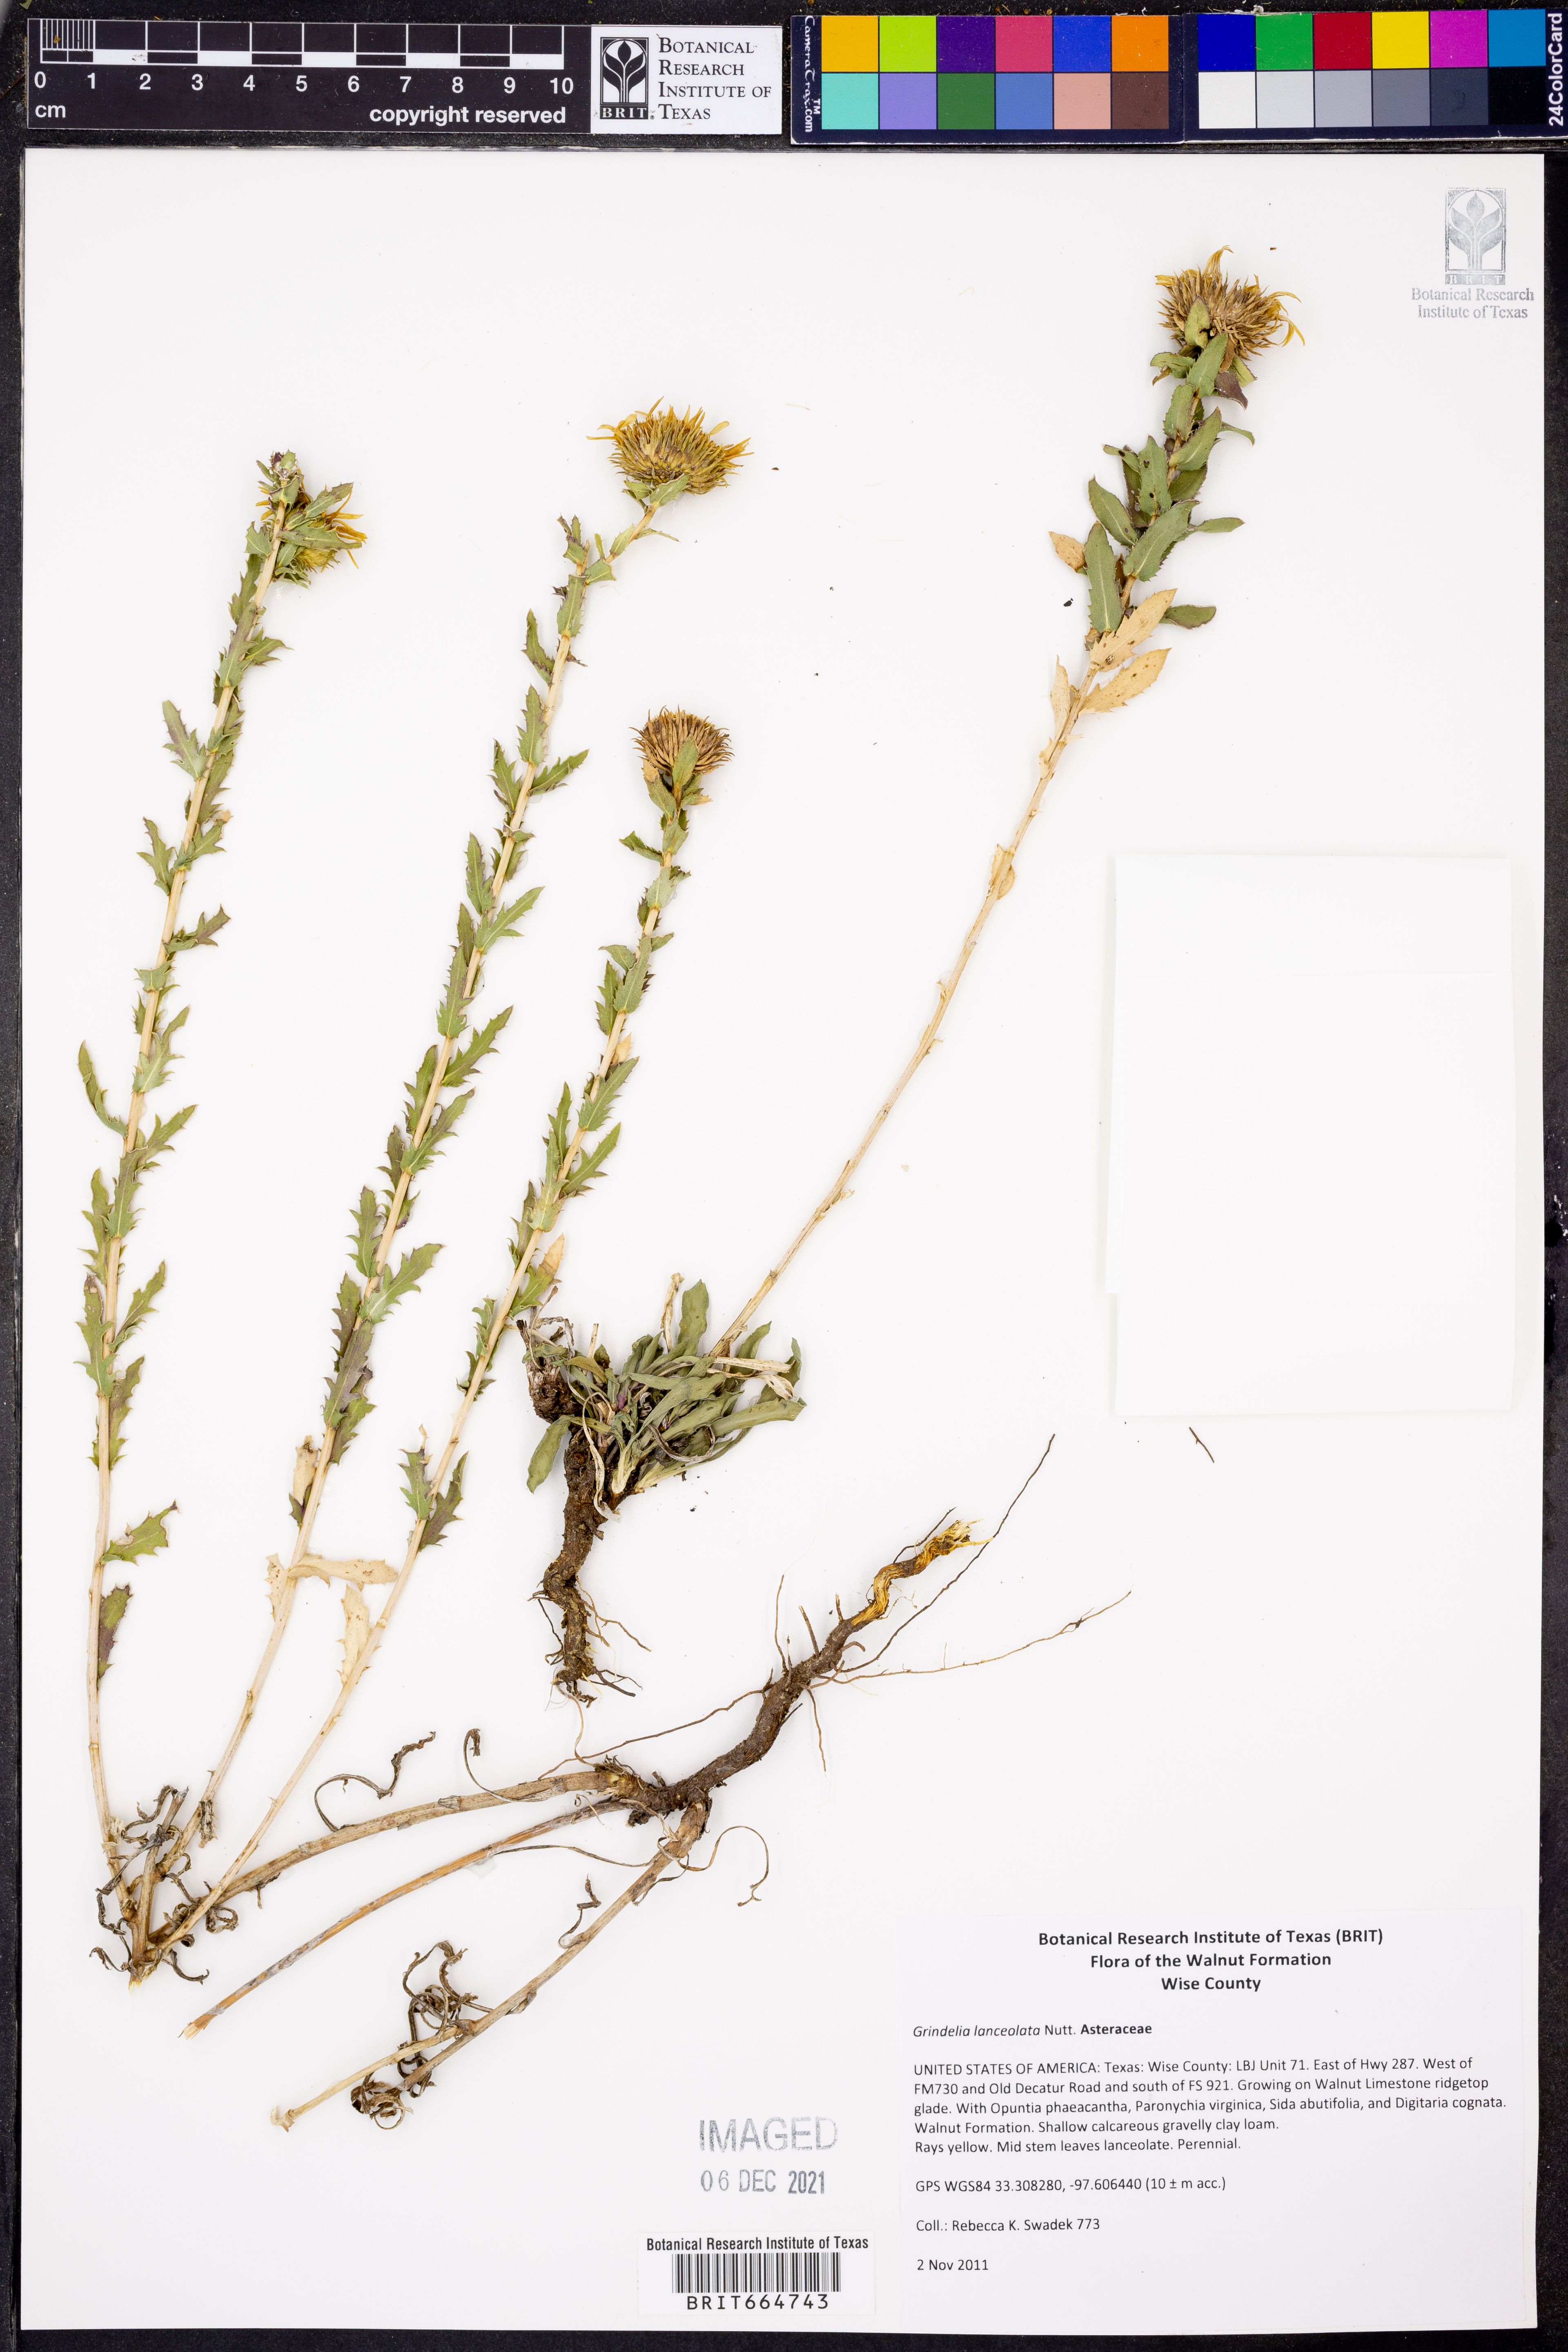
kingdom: Plantae
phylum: Tracheophyta
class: Magnoliopsida
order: Asterales
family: Asteraceae
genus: Grindelia
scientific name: Grindelia lanceolata
